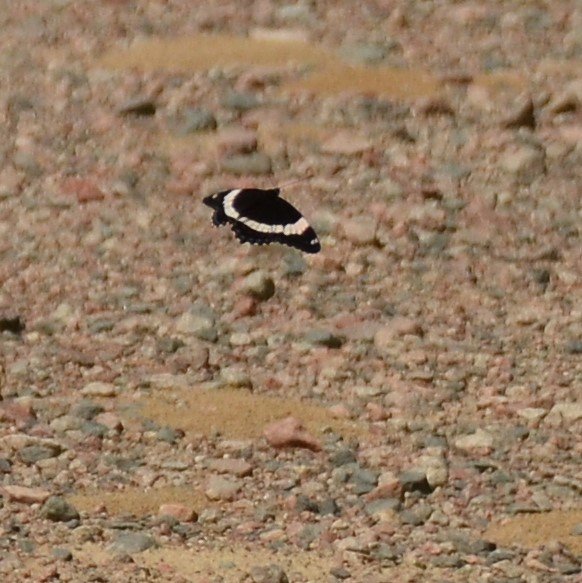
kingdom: Animalia
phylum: Arthropoda
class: Insecta
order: Lepidoptera
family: Nymphalidae
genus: Limenitis
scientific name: Limenitis arthemis
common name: Red-spotted Admiral
